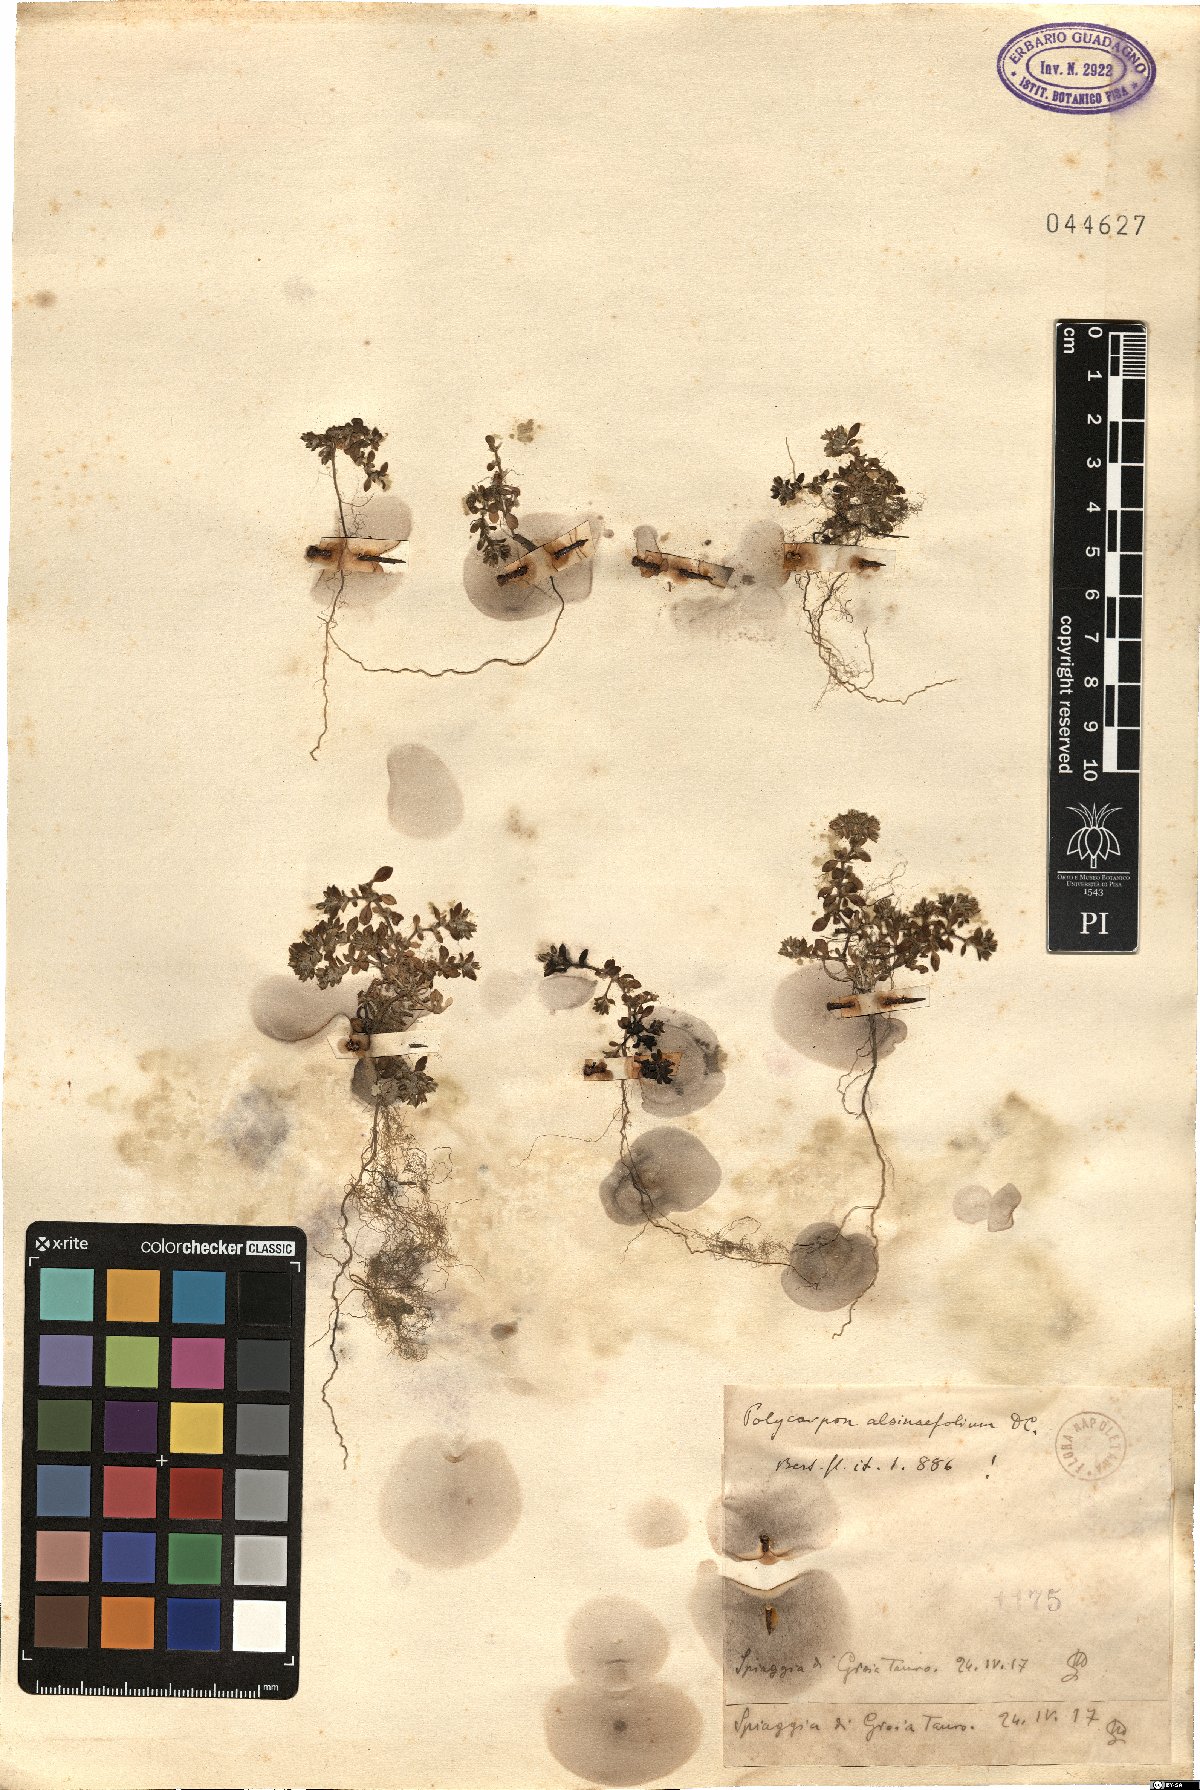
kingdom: Plantae
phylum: Tracheophyta
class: Magnoliopsida
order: Caryophyllales
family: Caryophyllaceae
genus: Polycarpon
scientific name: Polycarpon alsinifolium
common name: Fourleaf manyseed
